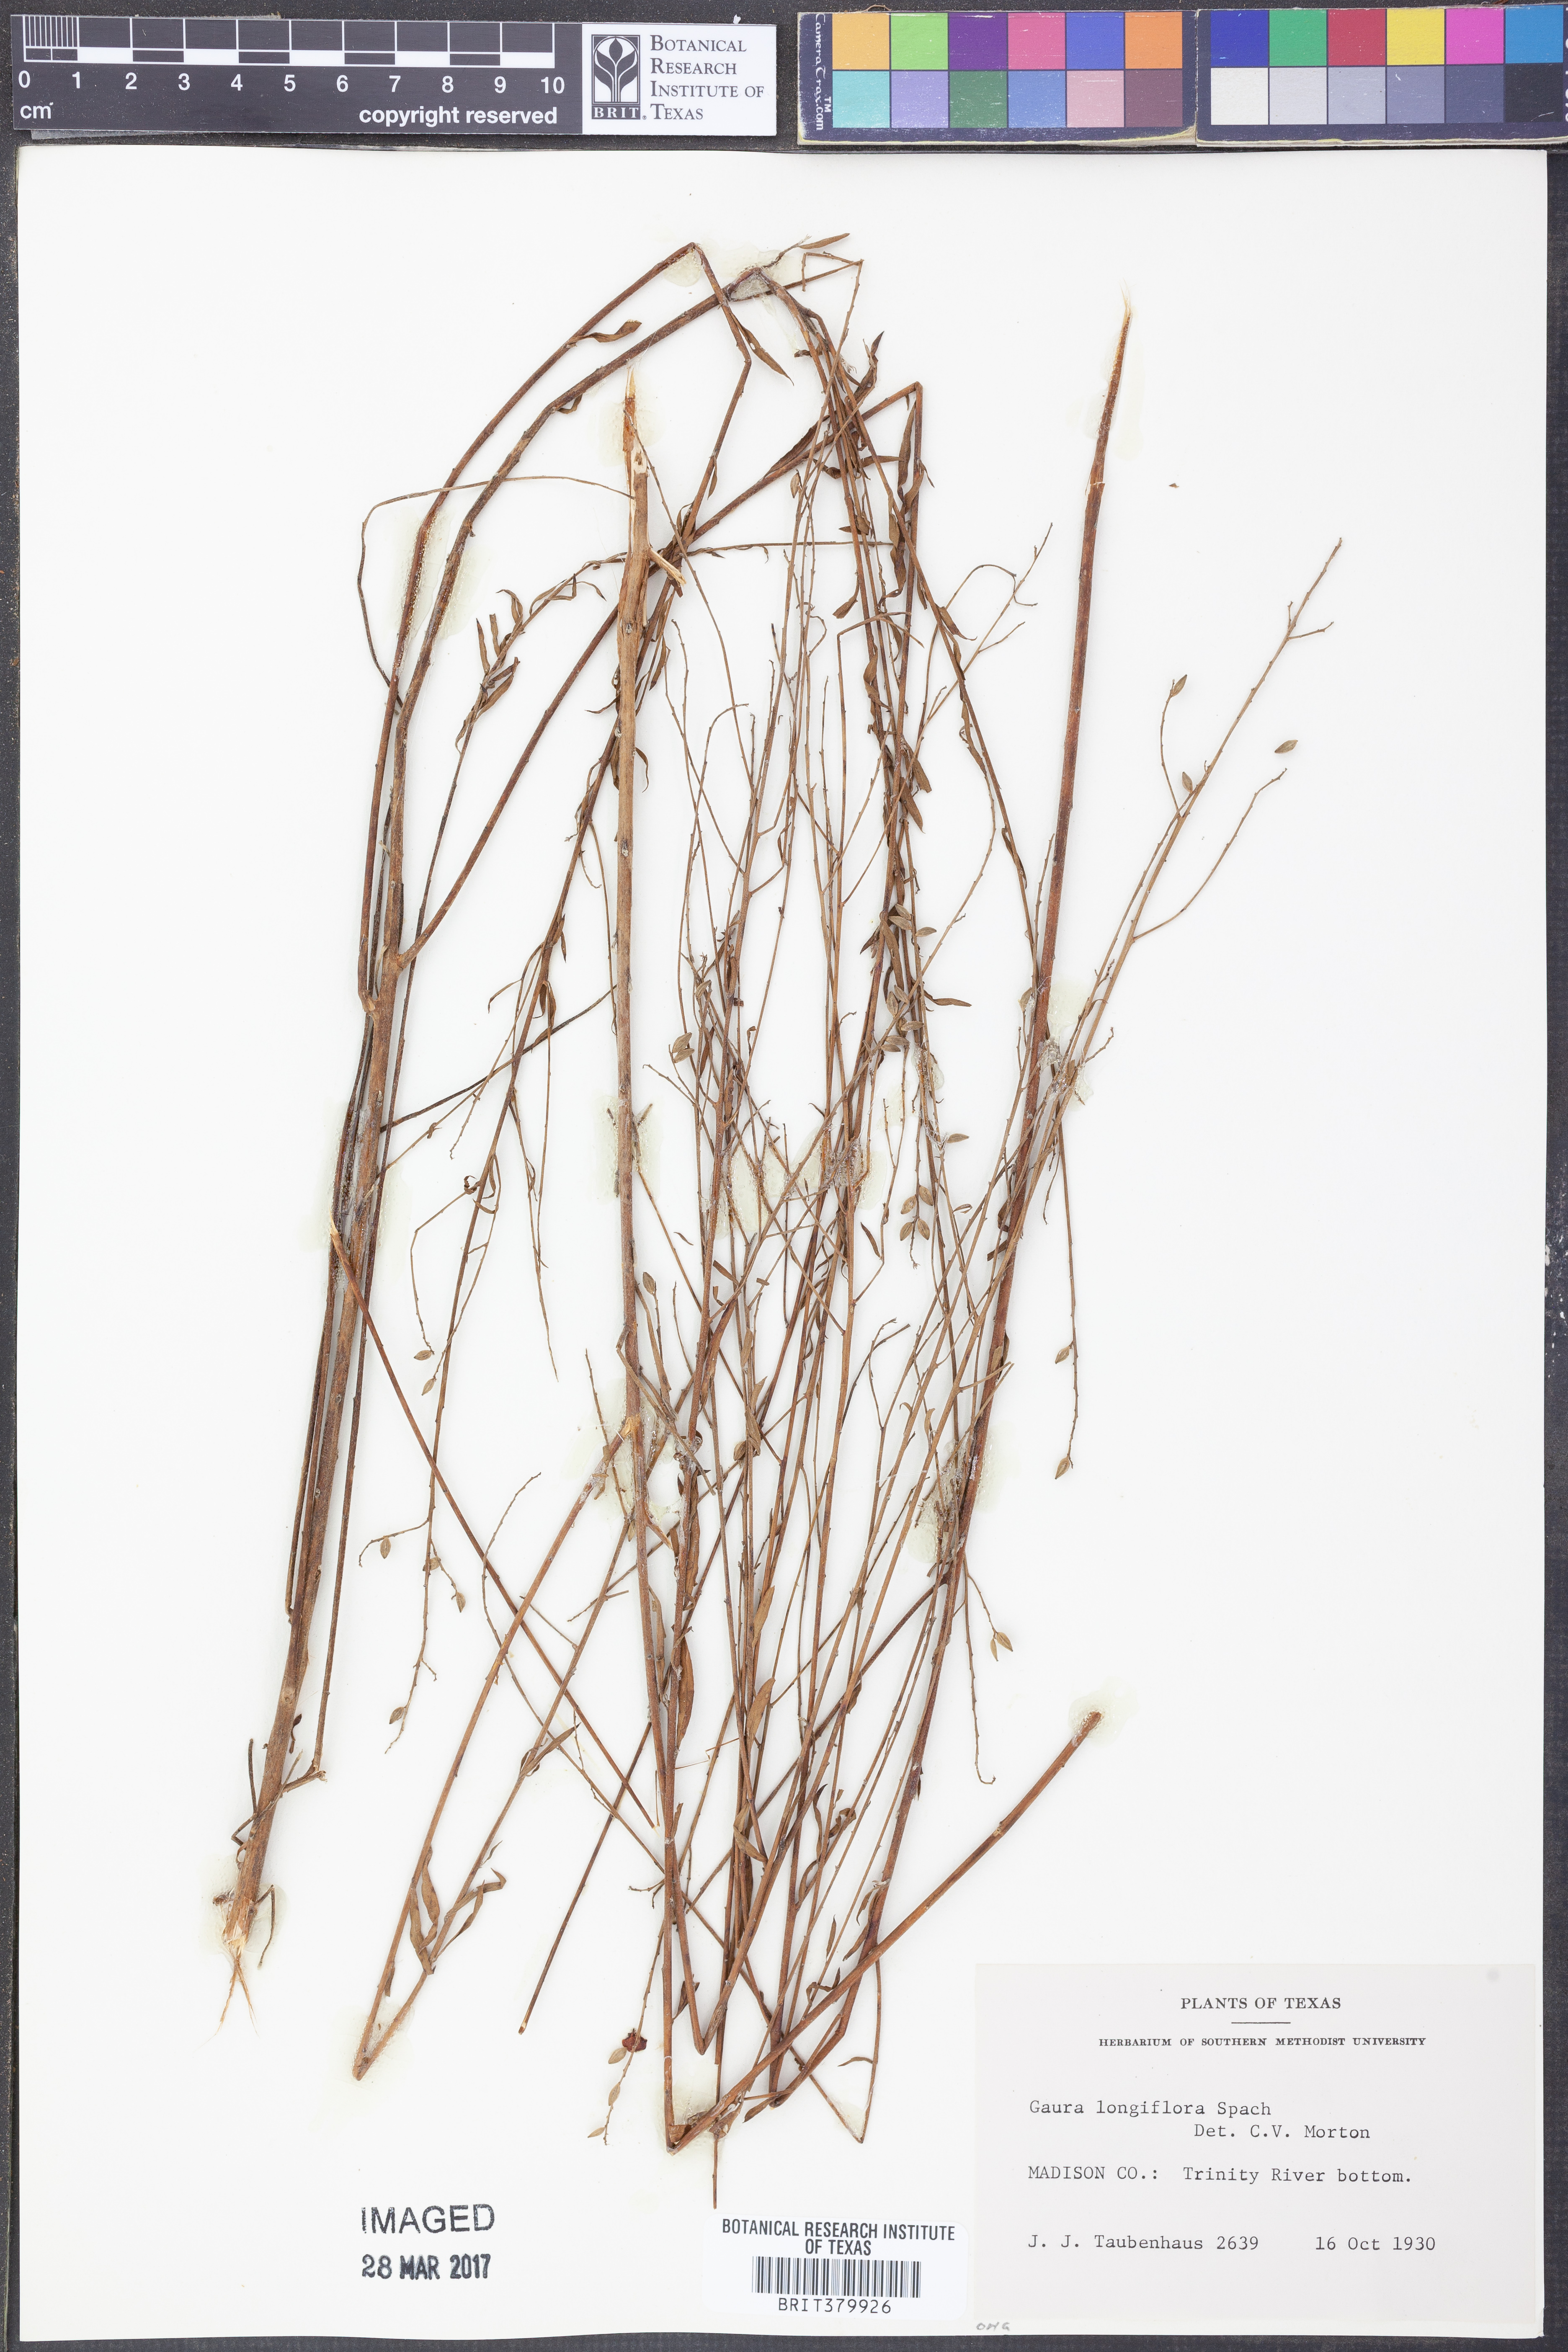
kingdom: Plantae
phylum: Tracheophyta
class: Magnoliopsida
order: Myrtales
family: Onagraceae
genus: Oenothera
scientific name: Oenothera filiformis
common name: Longflower beeblossom
